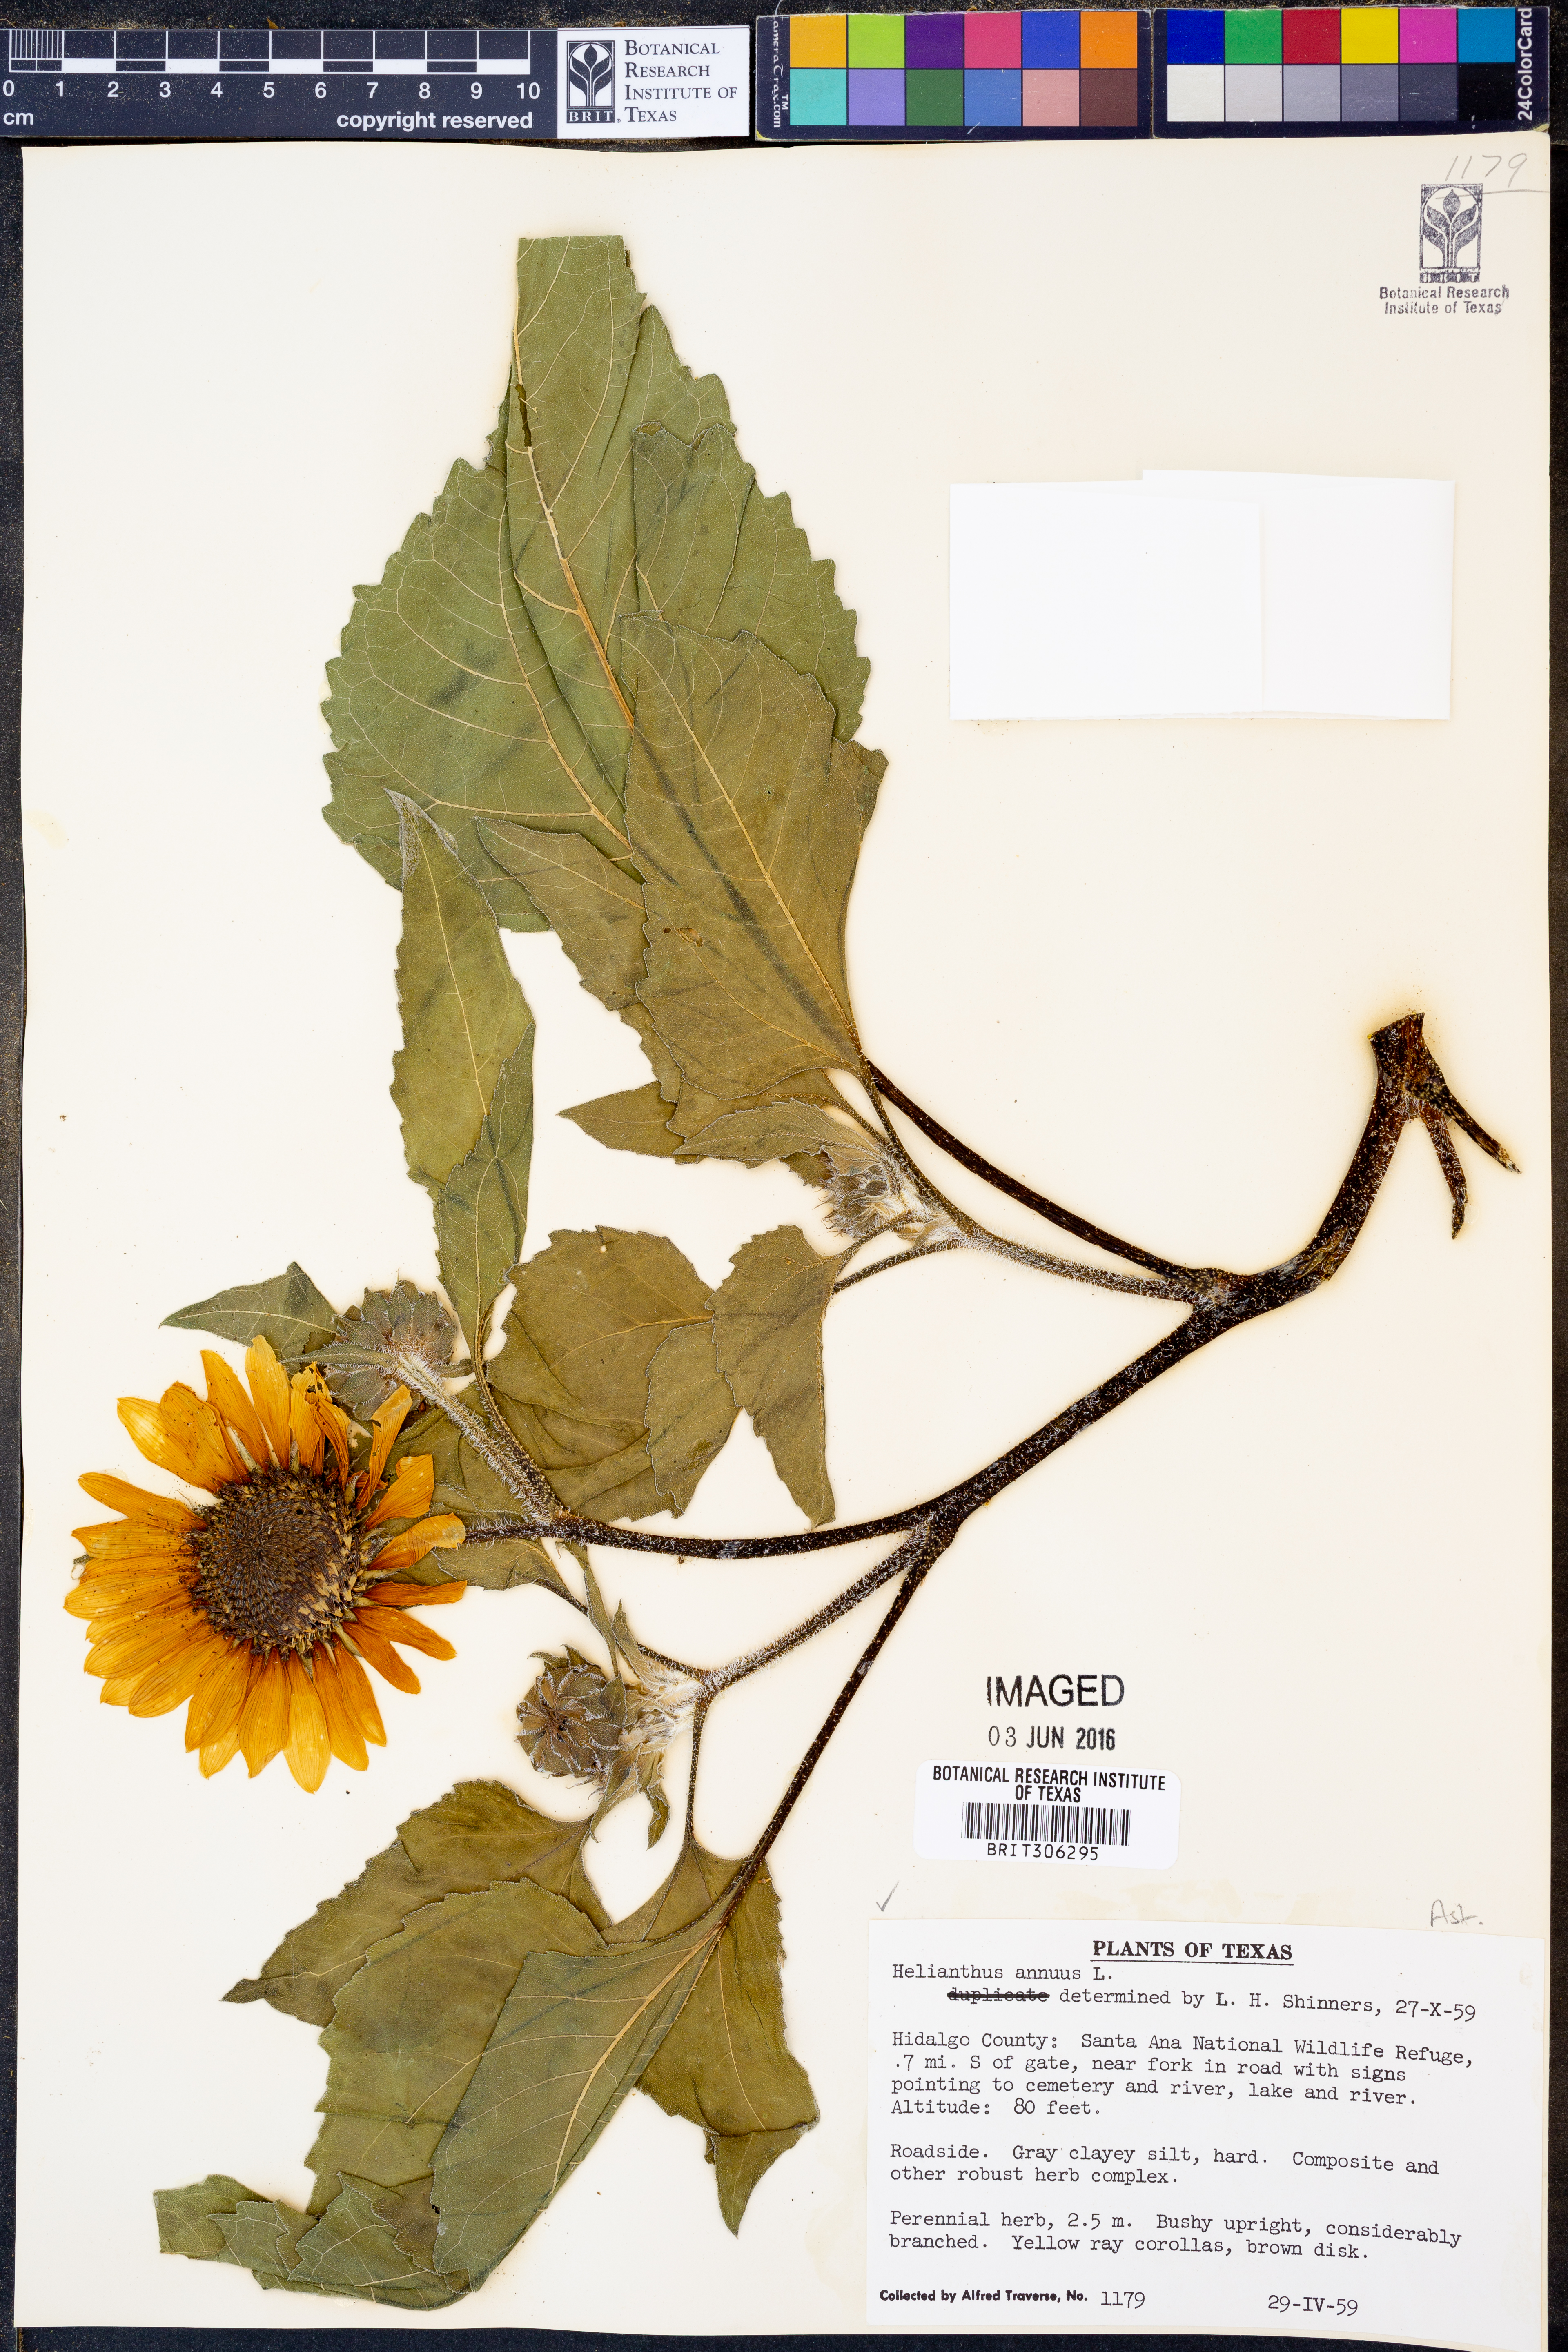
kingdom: Plantae
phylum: Tracheophyta
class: Magnoliopsida
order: Asterales
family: Asteraceae
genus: Helianthus
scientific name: Helianthus annuus
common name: Sunflower
